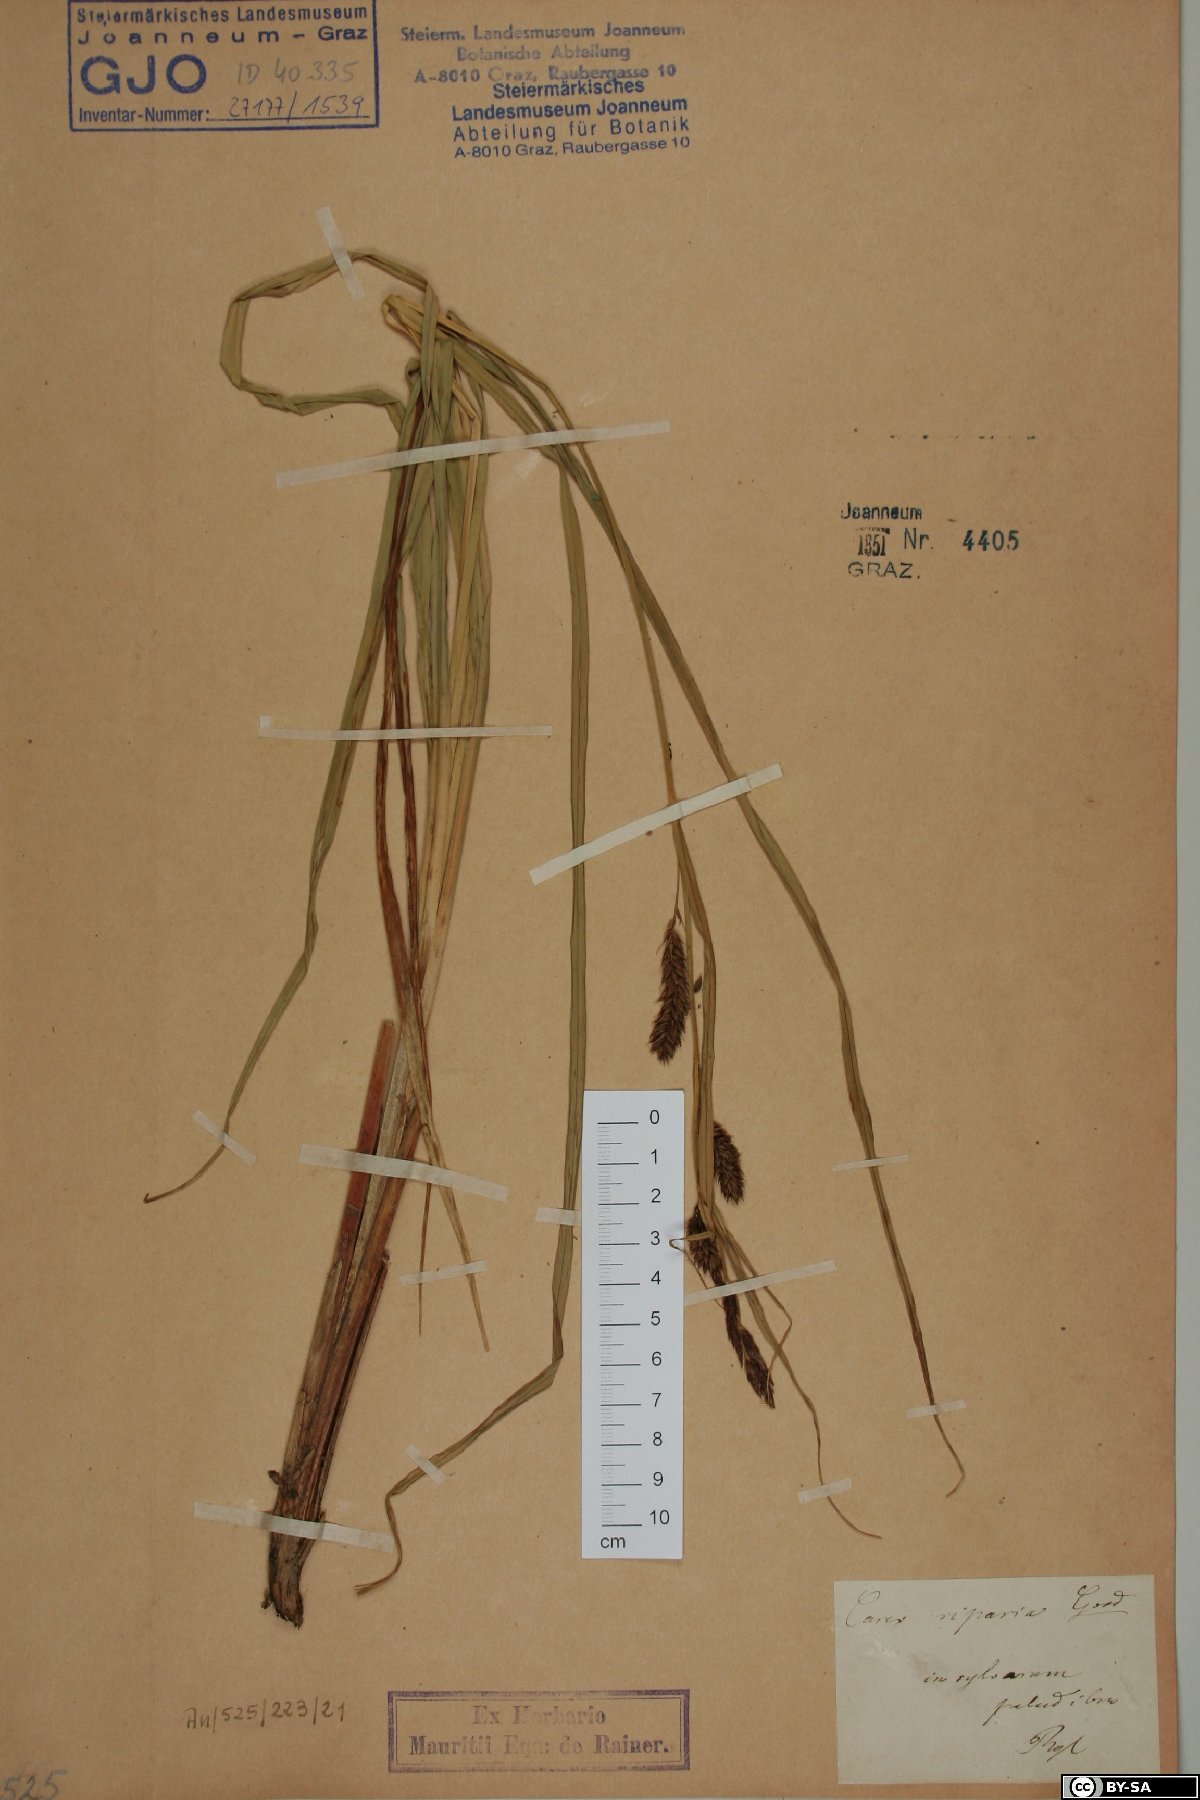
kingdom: Plantae
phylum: Tracheophyta
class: Liliopsida
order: Poales
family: Cyperaceae
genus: Carex
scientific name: Carex riparia
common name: Greater pond-sedge
